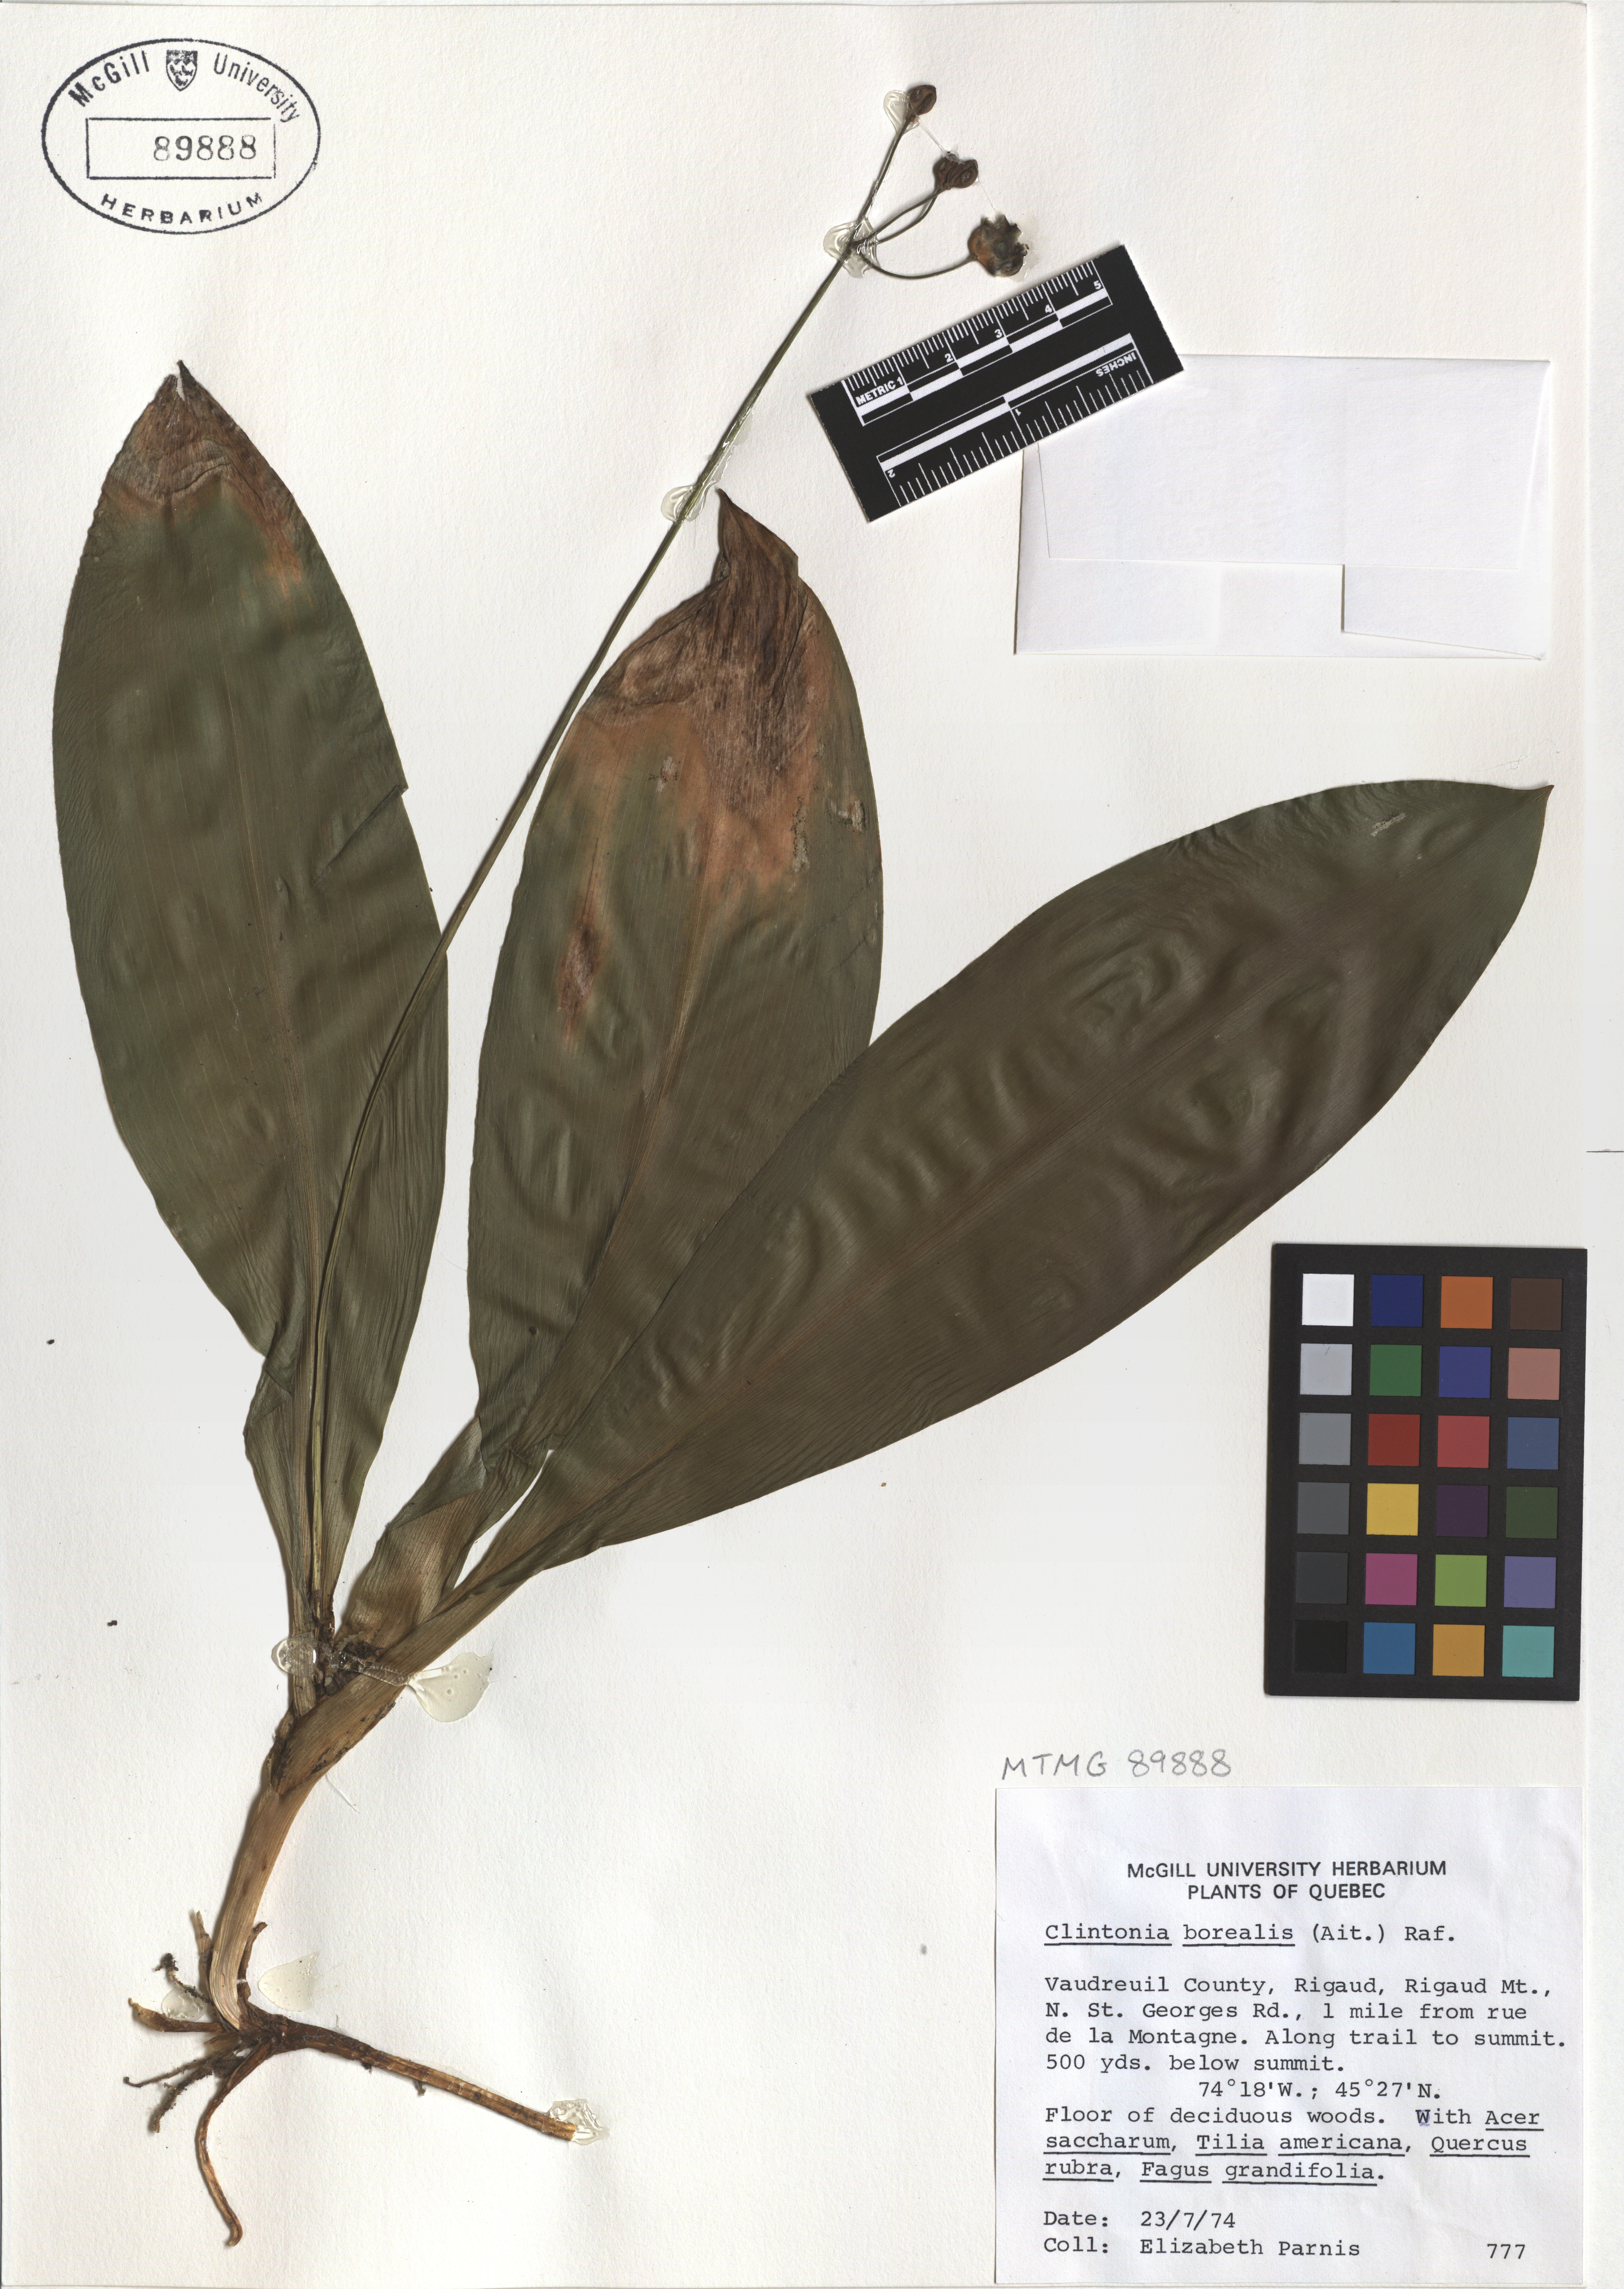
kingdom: Plantae
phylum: Tracheophyta
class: Liliopsida
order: Liliales
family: Liliaceae
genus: Clintonia
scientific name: Clintonia borealis
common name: Yellow clintonia
